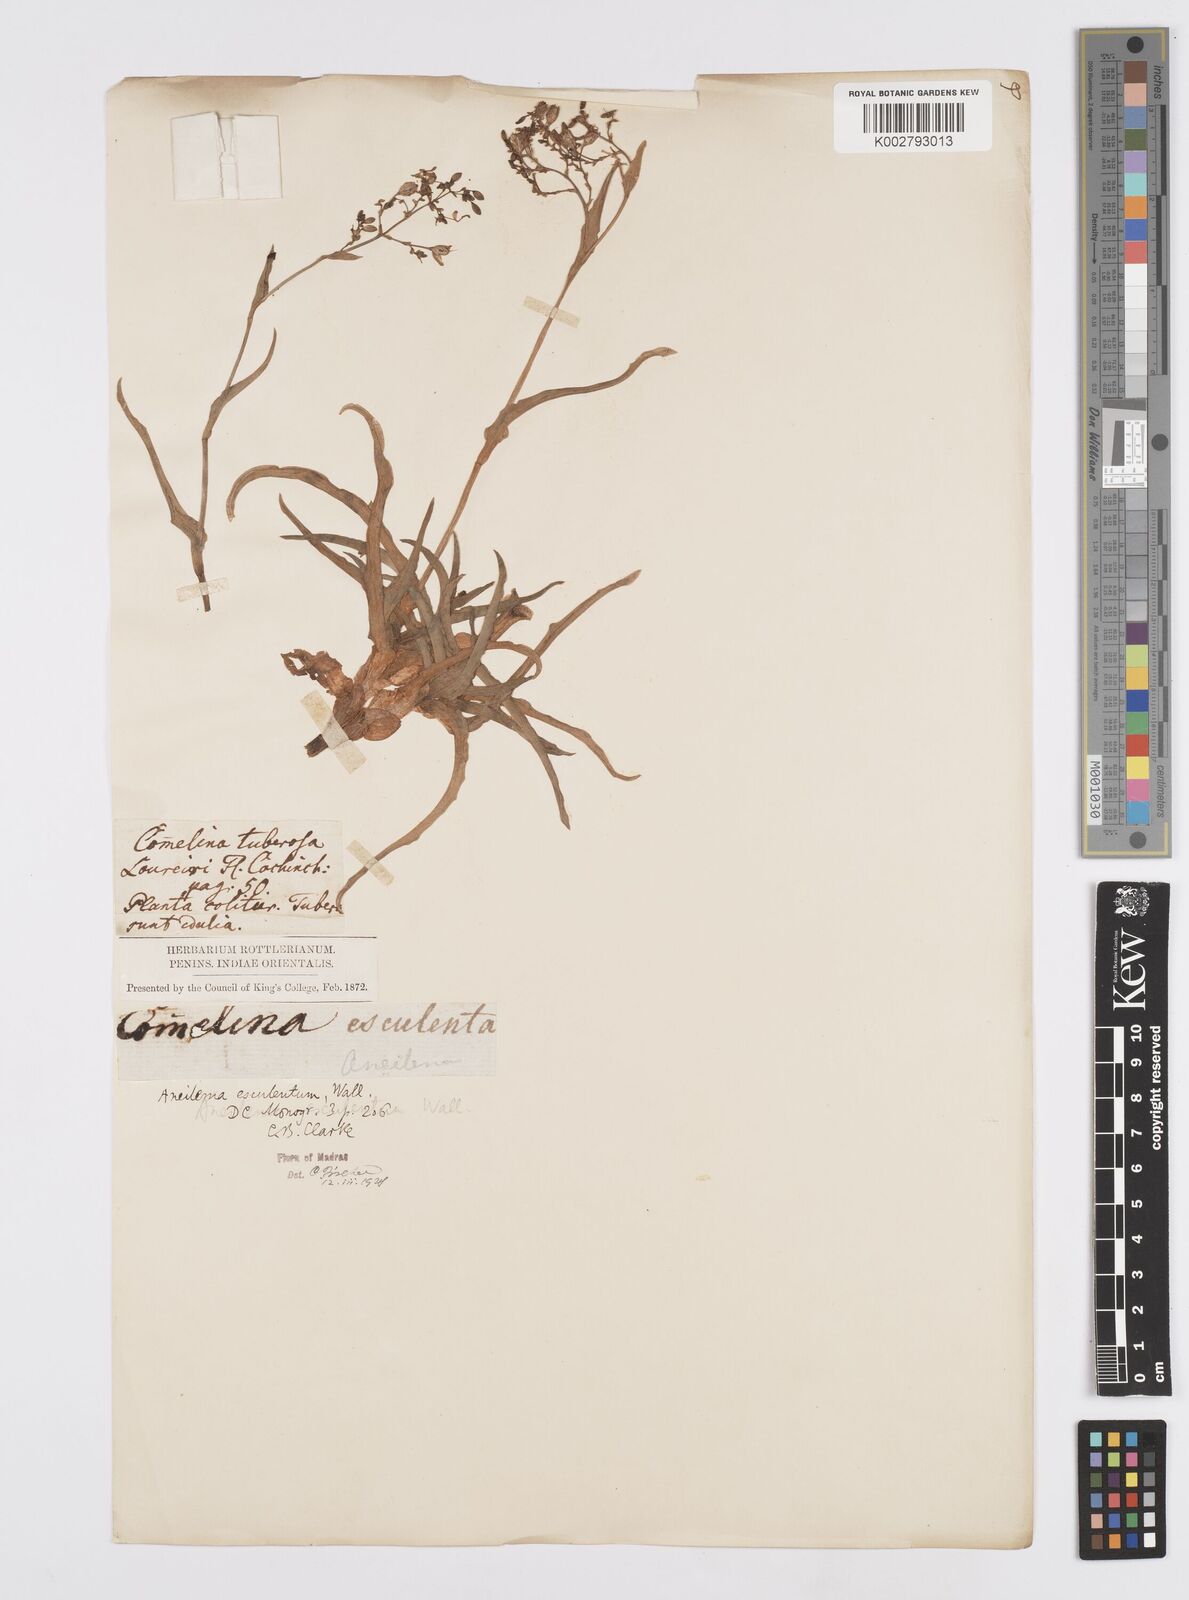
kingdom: Plantae
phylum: Tracheophyta
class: Liliopsida
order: Commelinales
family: Commelinaceae
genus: Murdannia
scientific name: Murdannia esculenta
